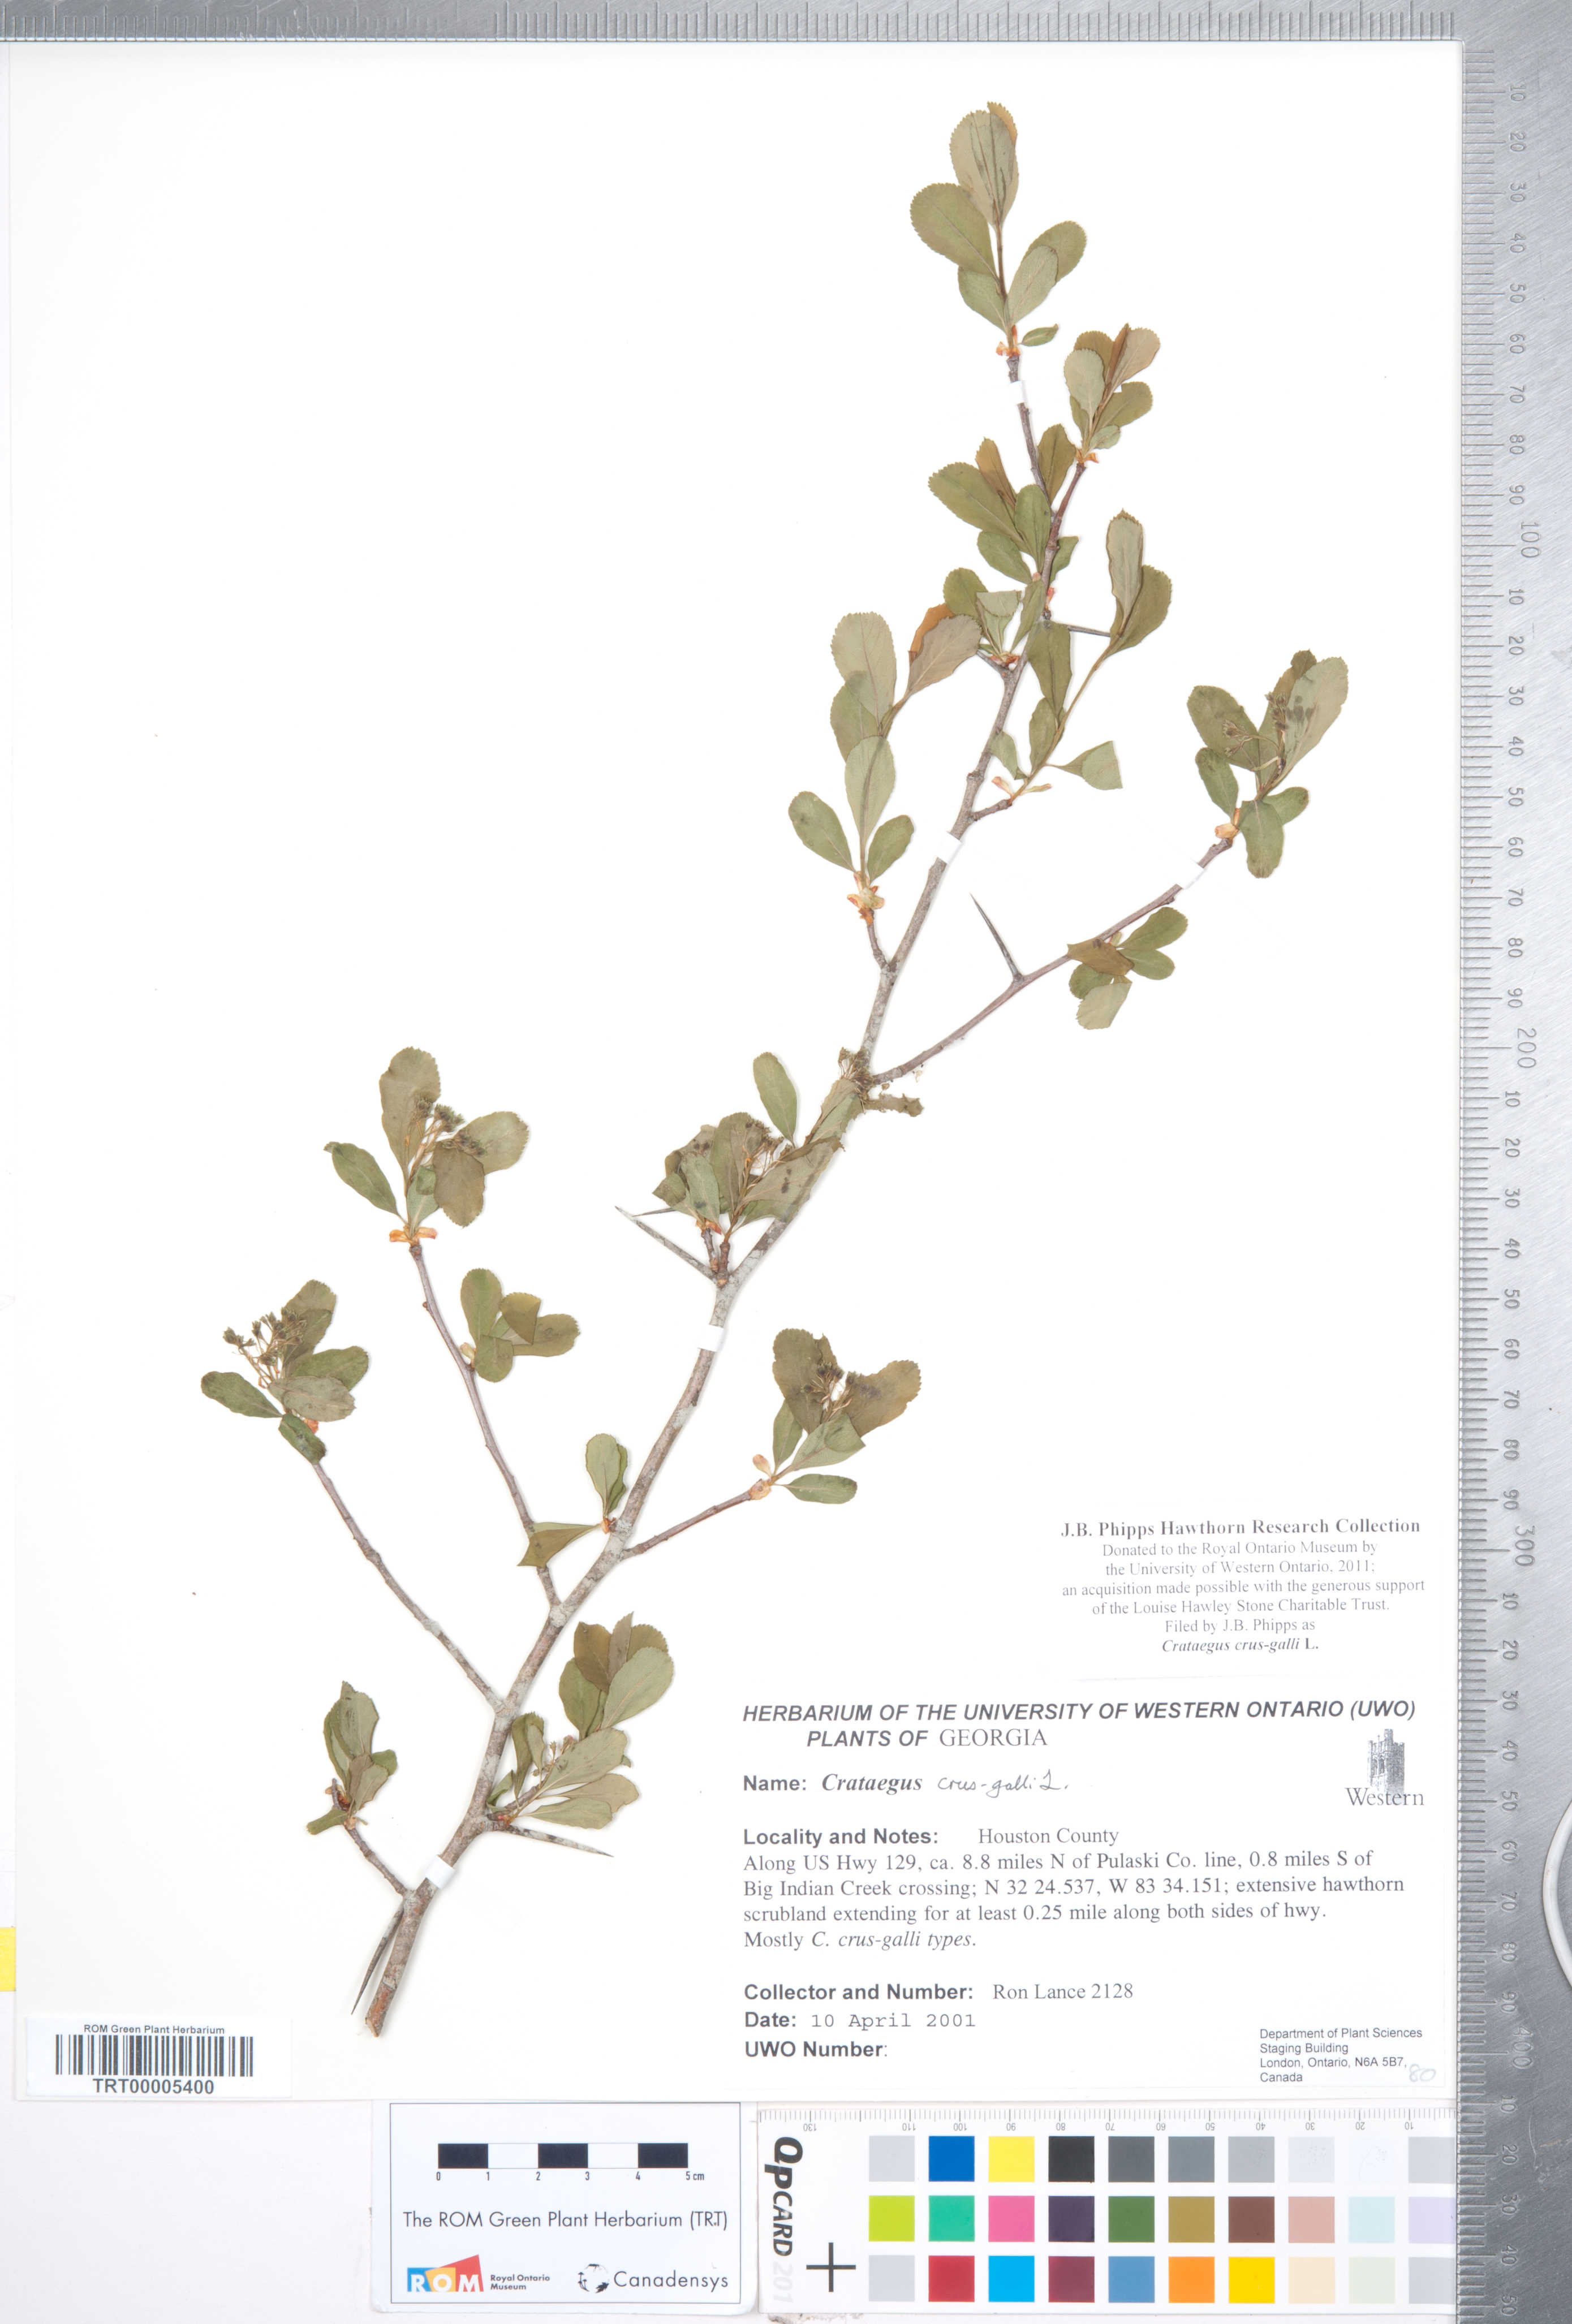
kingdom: Plantae
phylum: Tracheophyta
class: Magnoliopsida
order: Rosales
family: Rosaceae
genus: Crataegus
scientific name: Crataegus crus-galli
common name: Cockspurthorn
